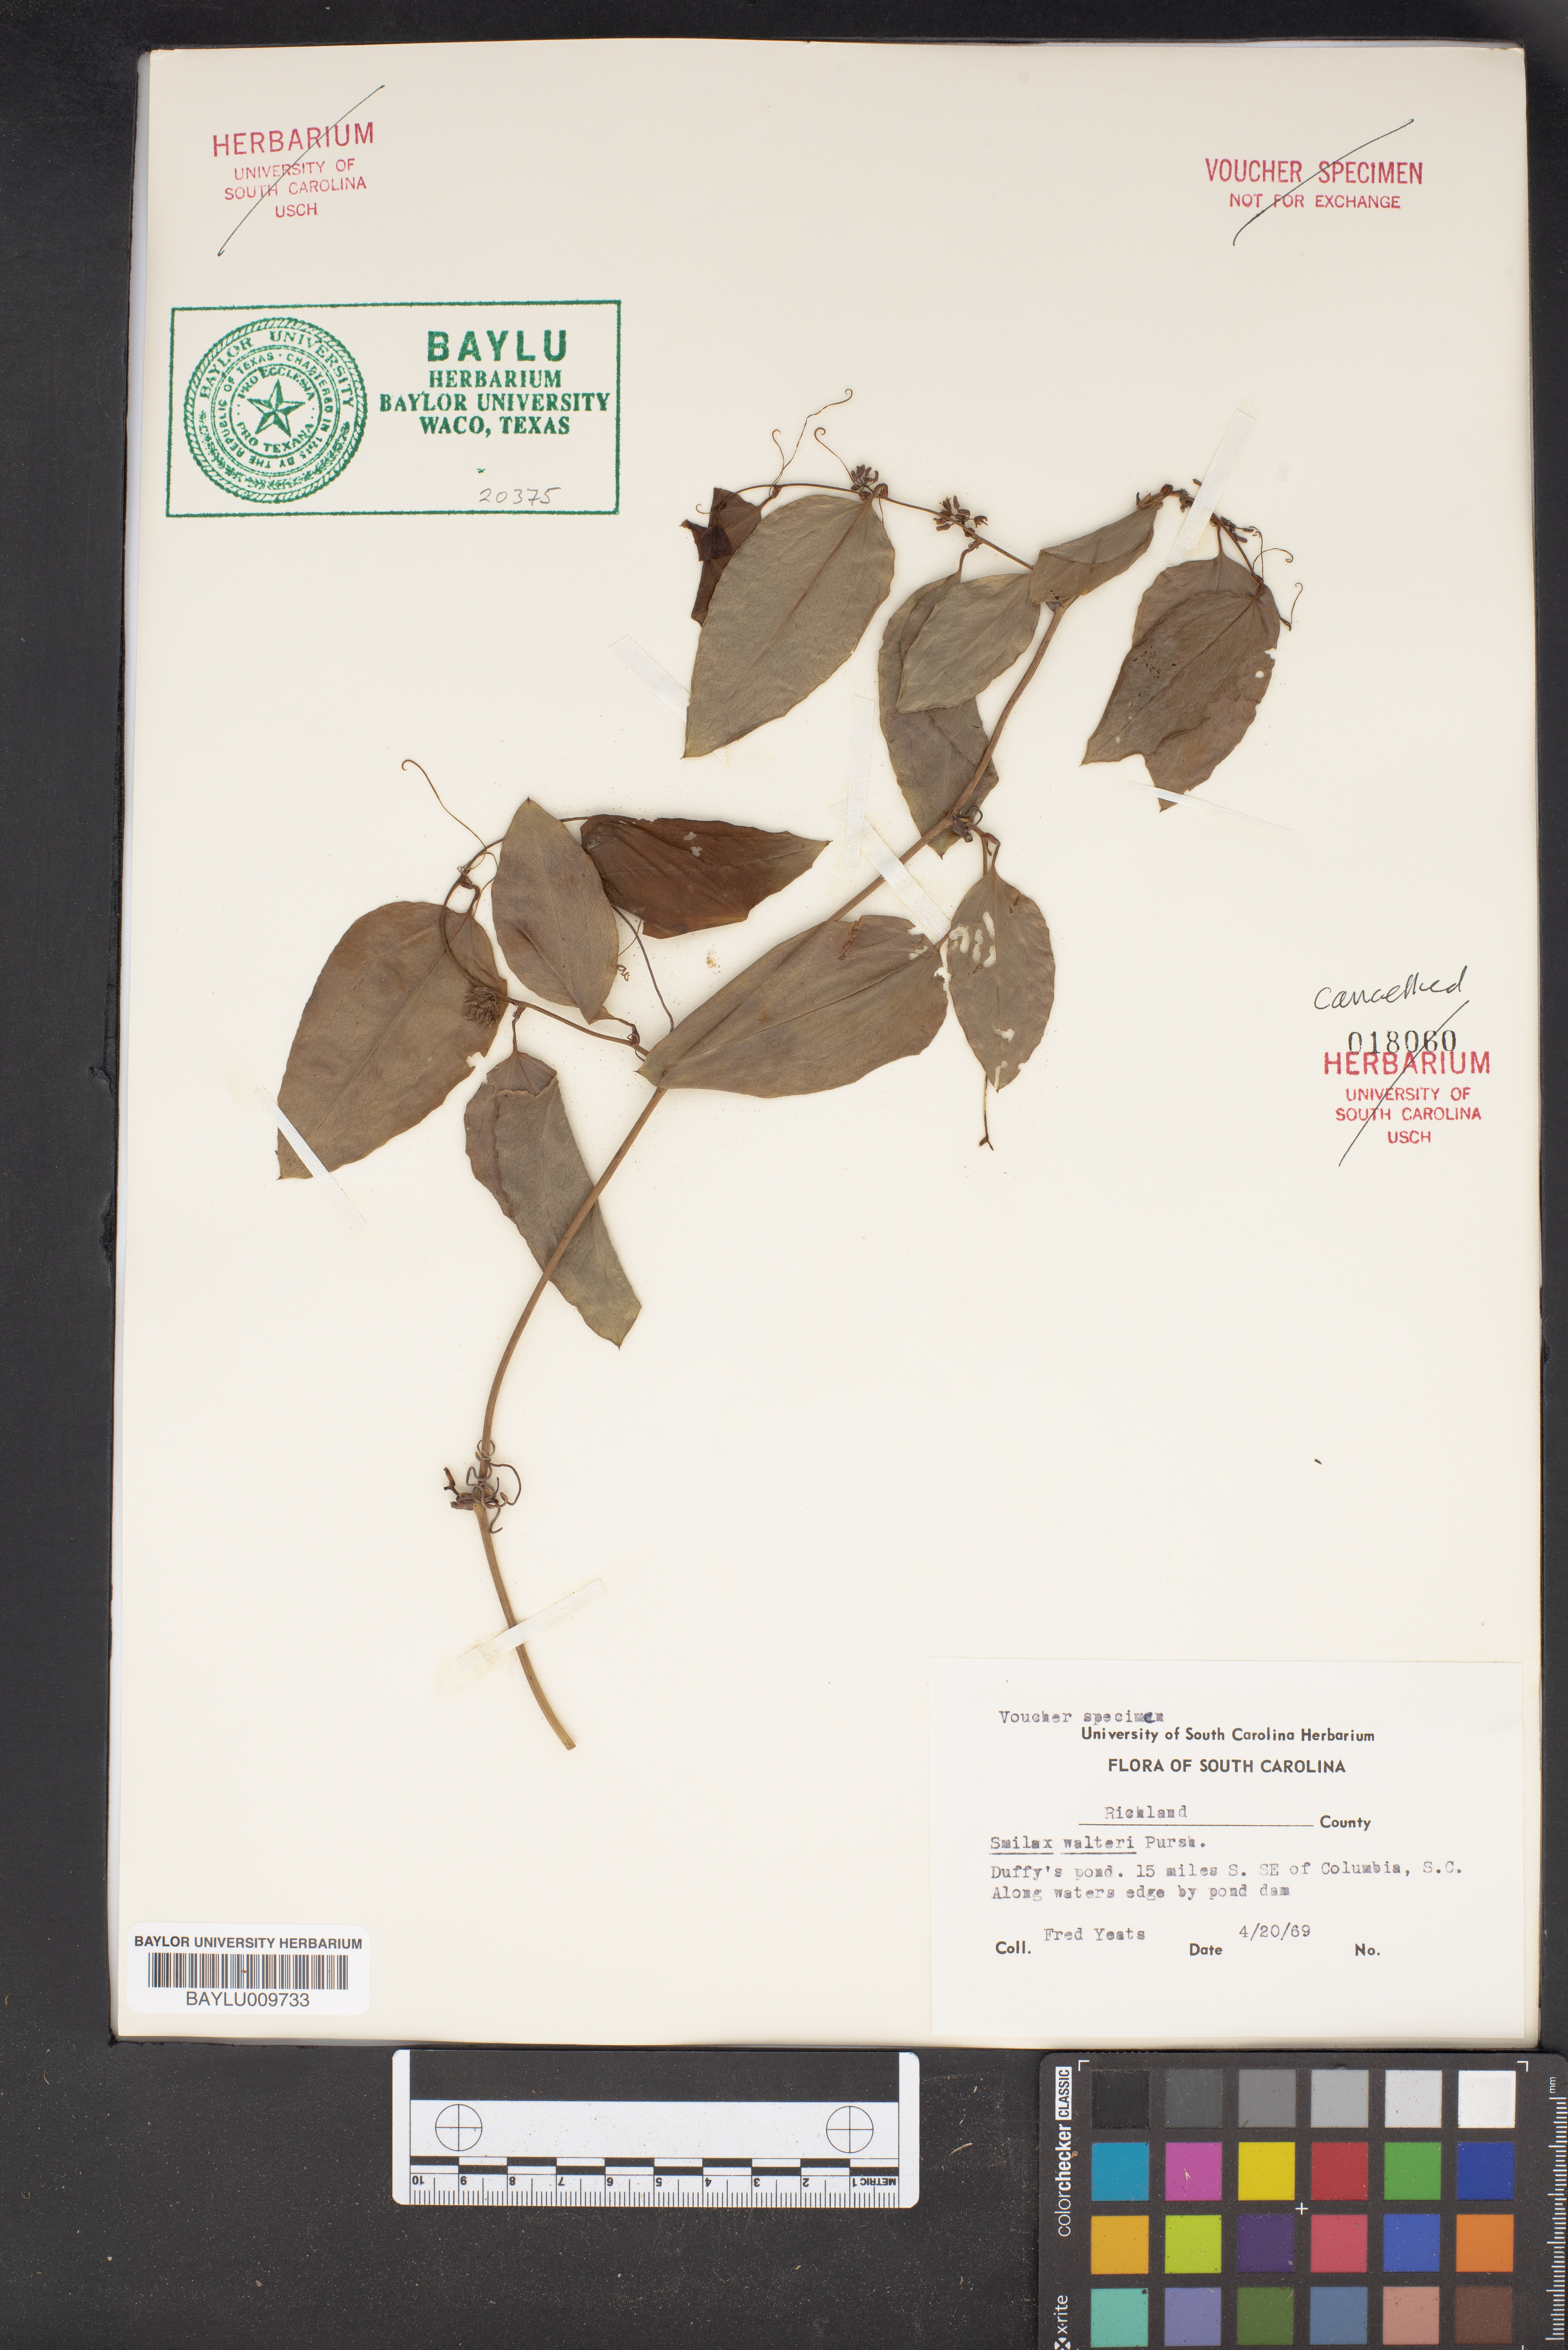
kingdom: Plantae
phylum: Tracheophyta
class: Liliopsida
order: Liliales
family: Smilacaceae
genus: Smilax
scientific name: Smilax walteri
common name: Coral greenbrier
